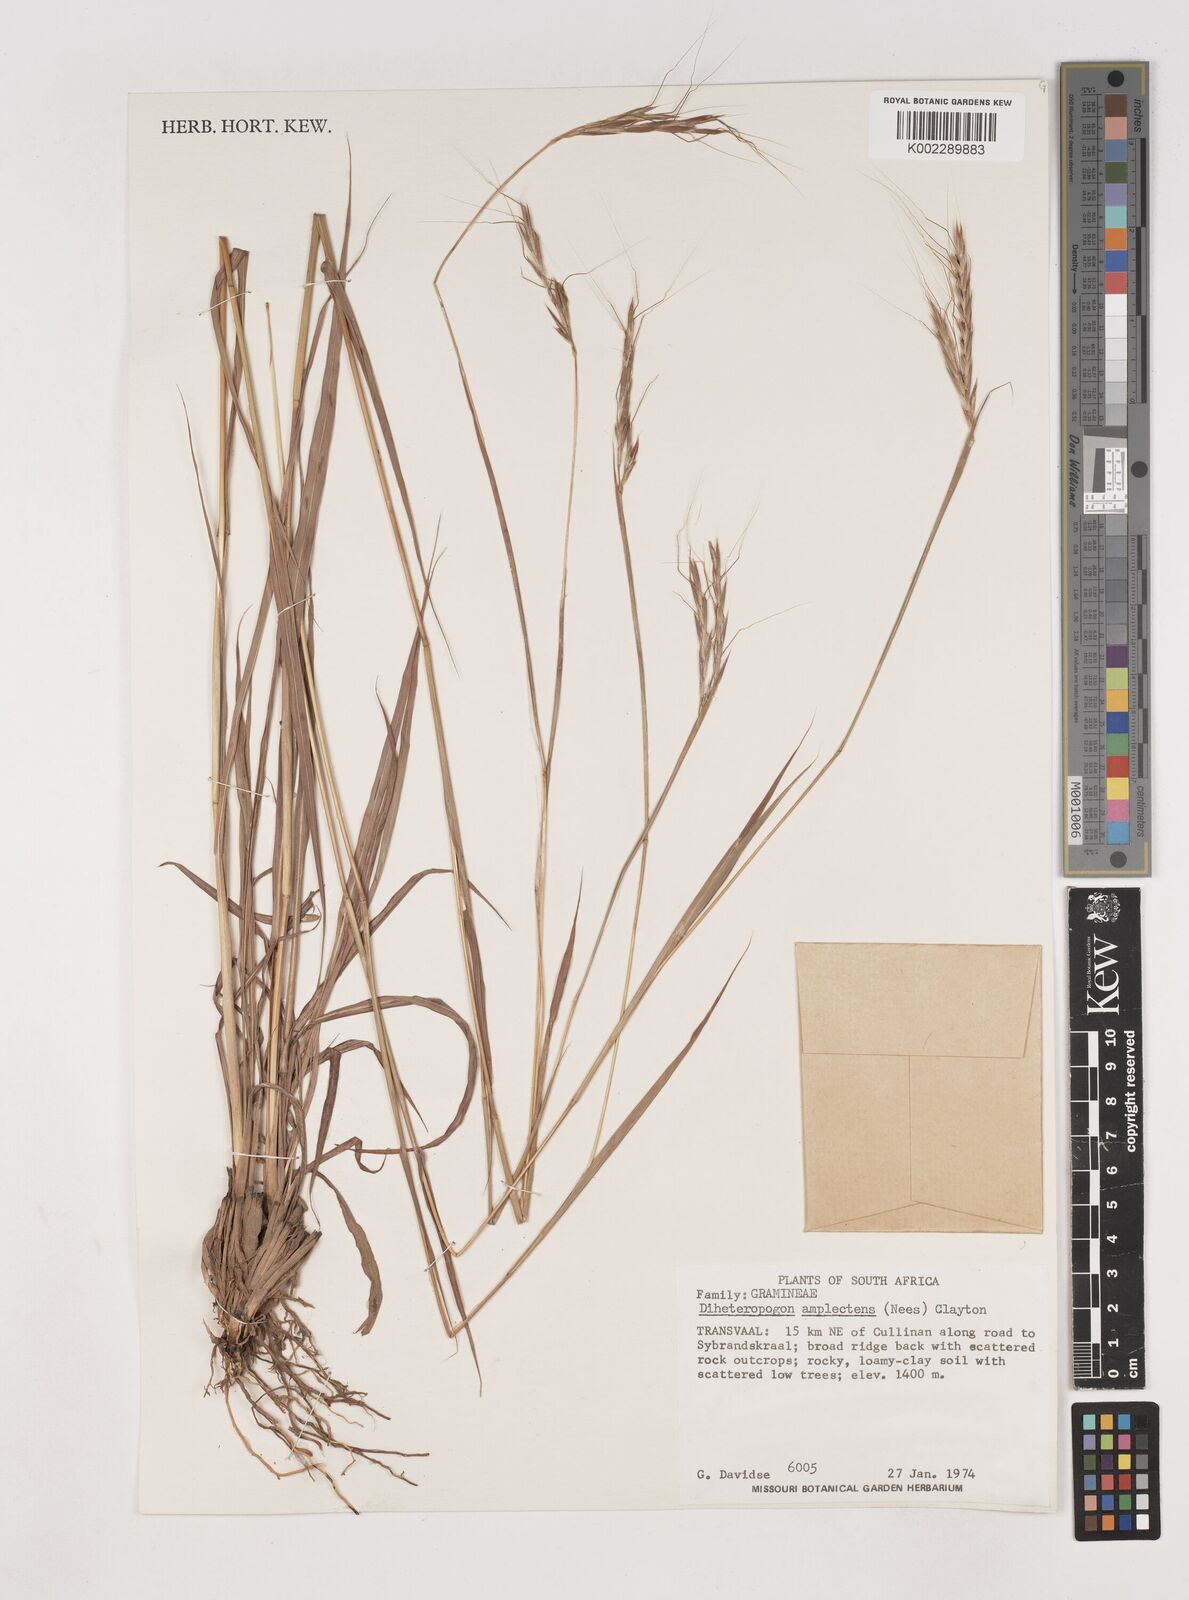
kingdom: Plantae
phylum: Tracheophyta
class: Liliopsida
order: Poales
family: Poaceae
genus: Diheteropogon
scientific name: Diheteropogon amplectens
